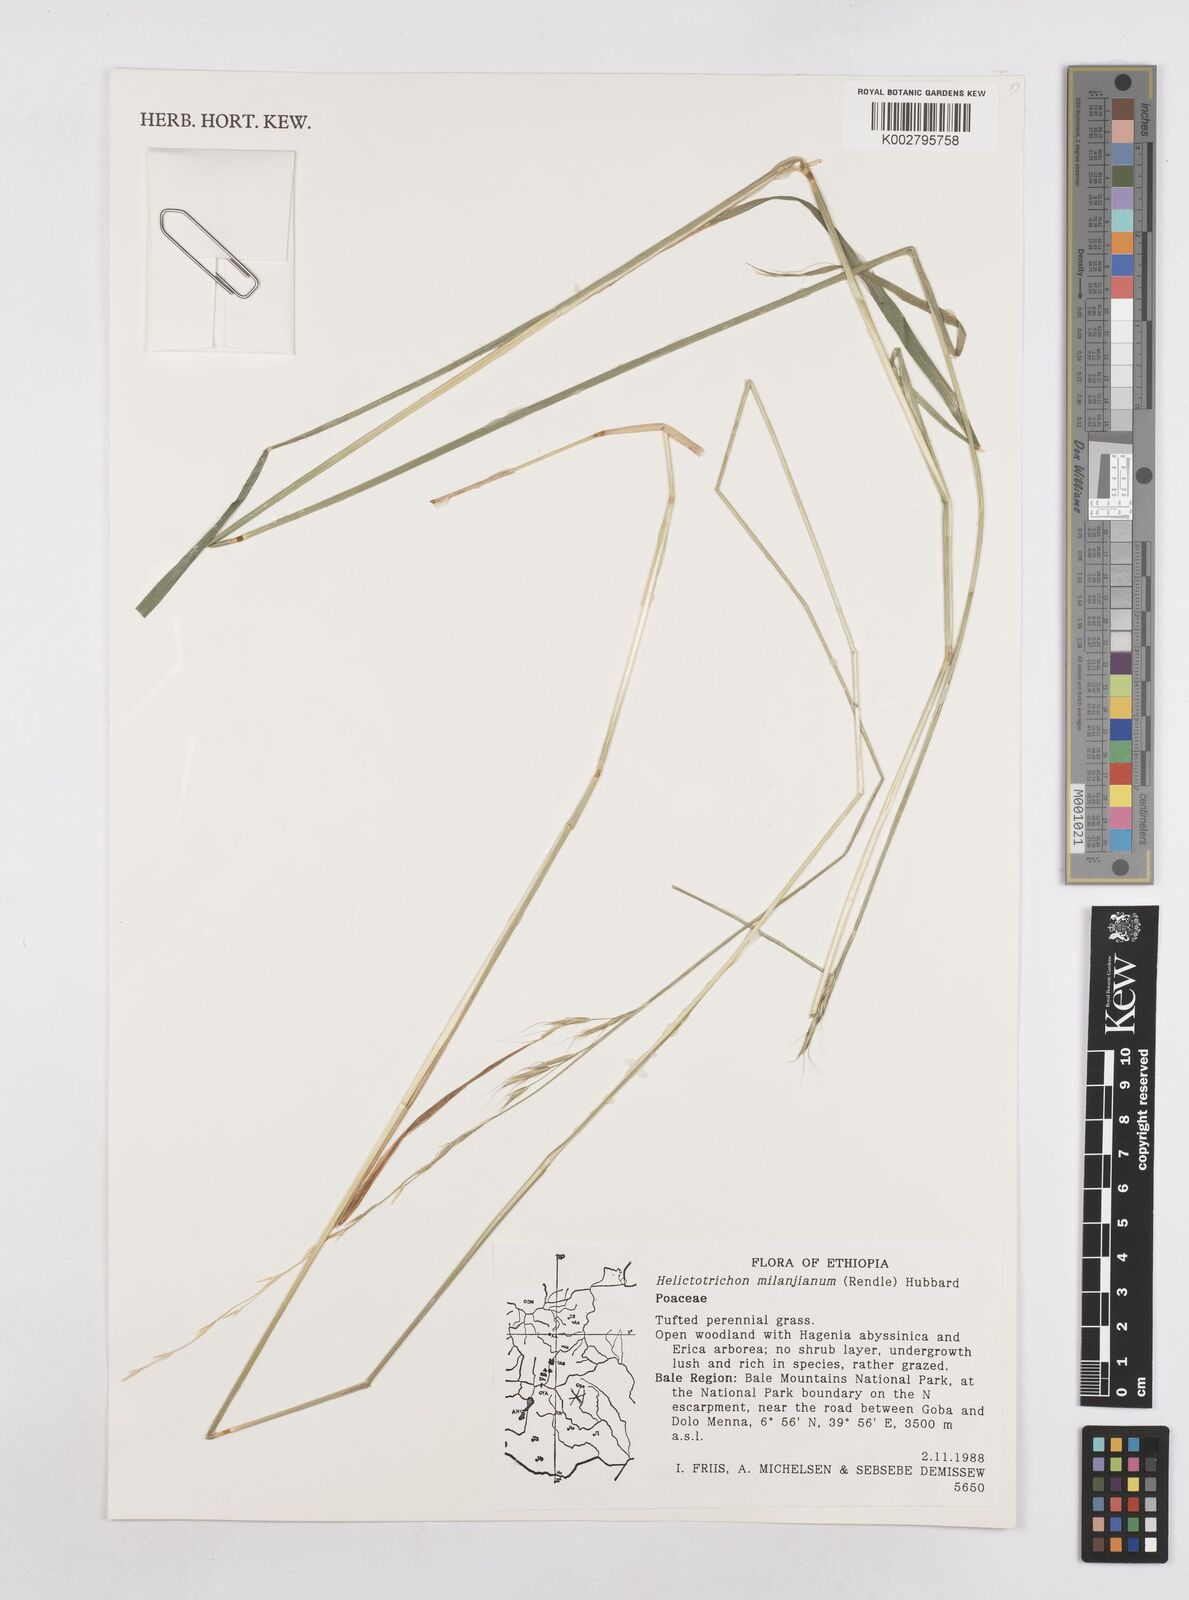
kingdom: Plantae
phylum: Tracheophyta
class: Liliopsida
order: Poales
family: Poaceae
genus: Trisetopsis
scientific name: Trisetopsis milanjiana
